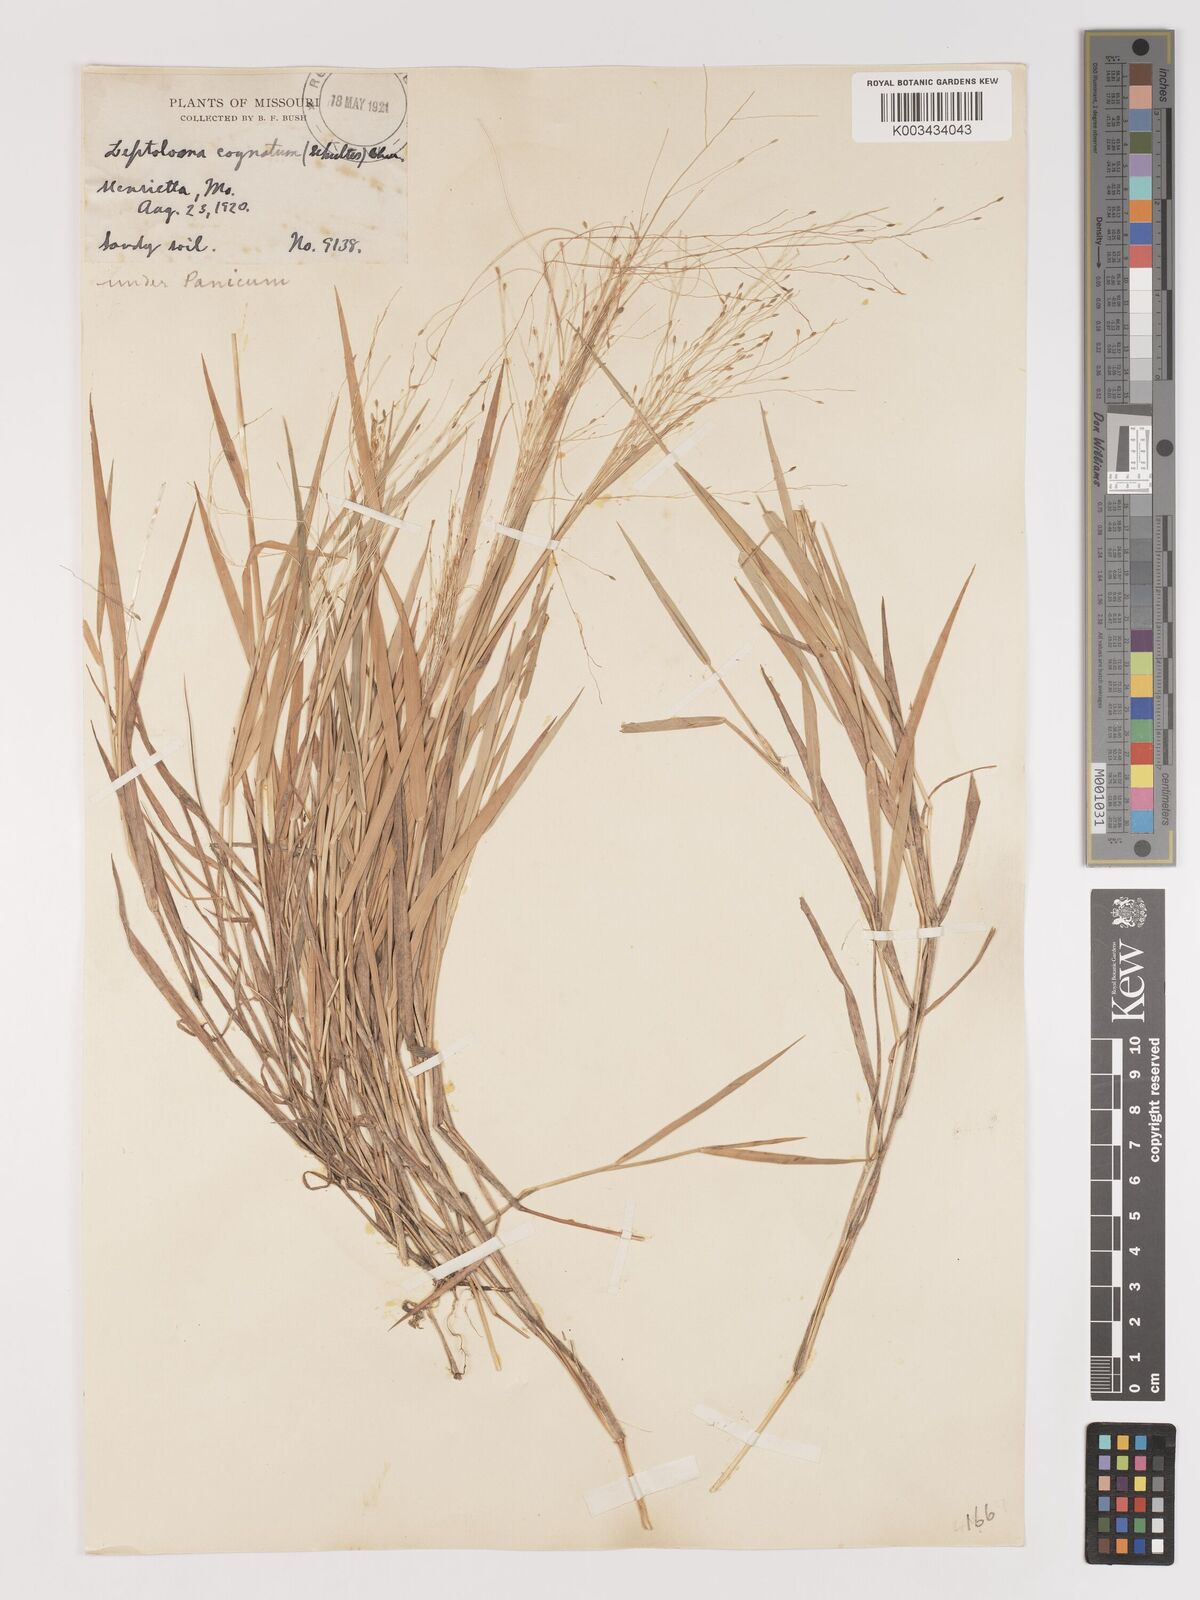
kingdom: Plantae
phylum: Tracheophyta
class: Liliopsida
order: Poales
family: Poaceae
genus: Digitaria
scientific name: Digitaria cognata
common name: Fall witchgrass
